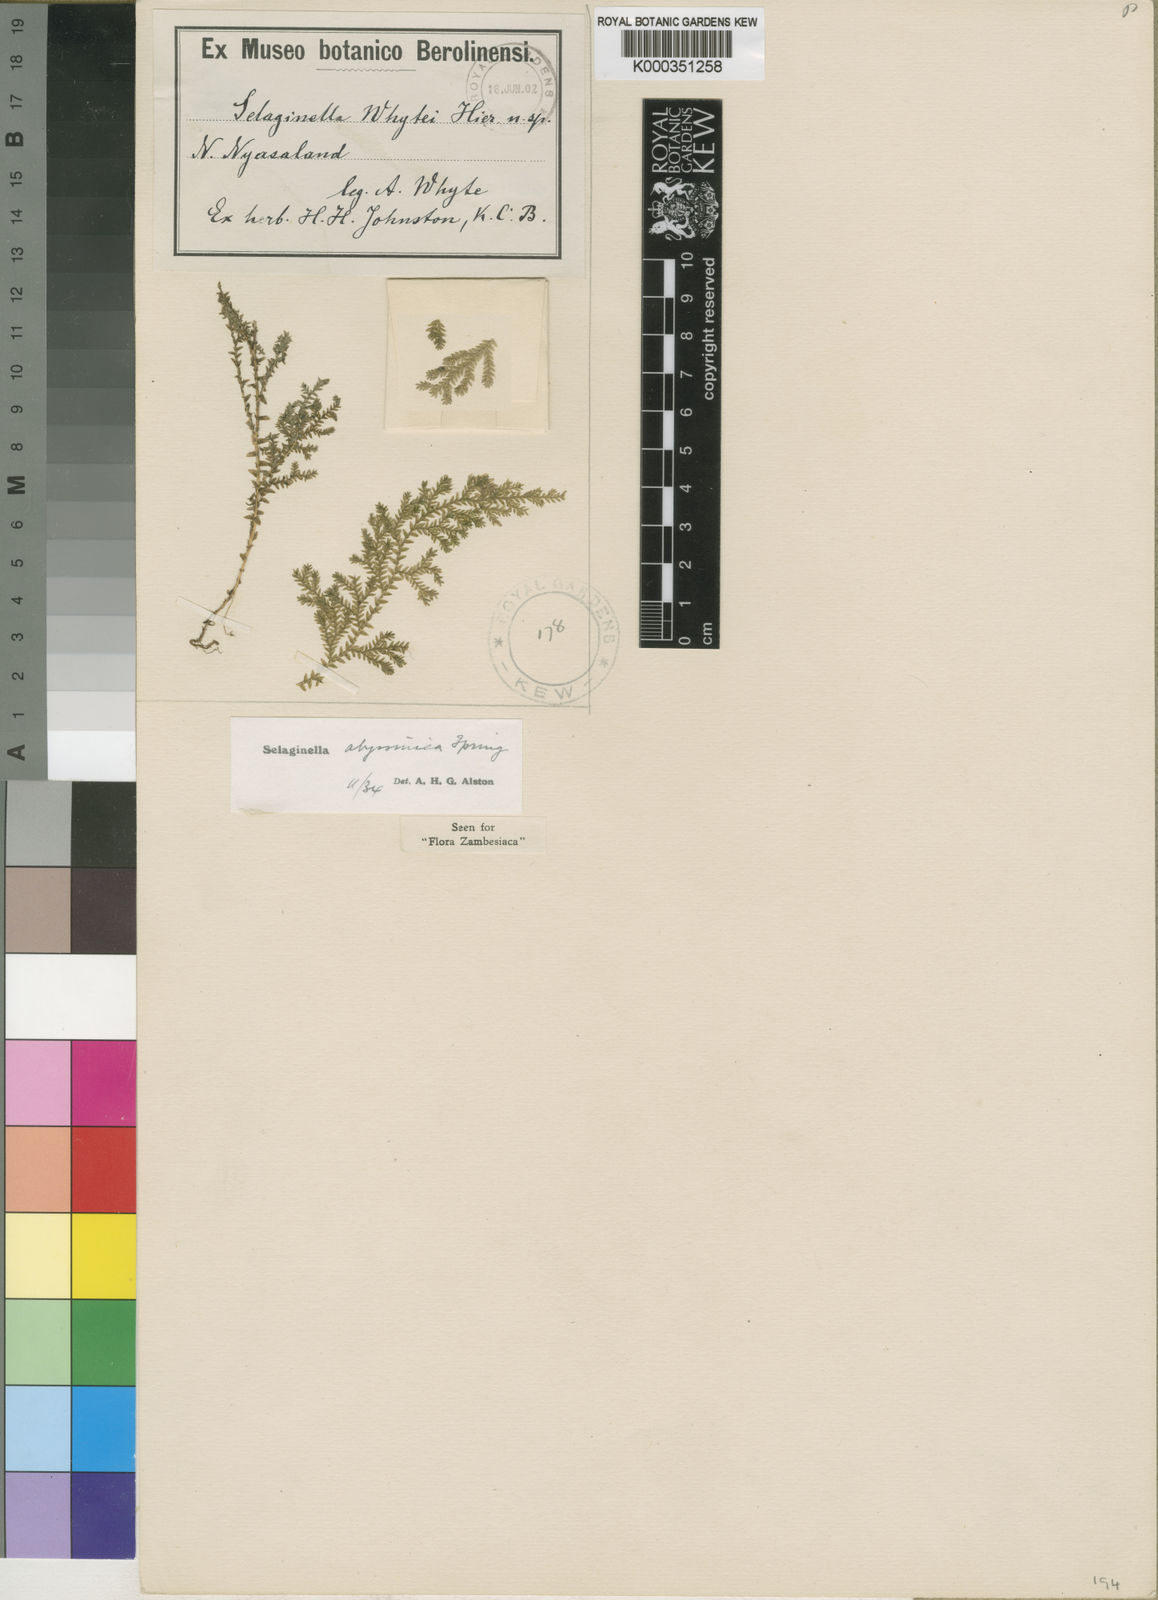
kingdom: Plantae
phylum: Tracheophyta
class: Lycopodiopsida
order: Selaginellales
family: Selaginellaceae
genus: Selaginella
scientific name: Selaginella
